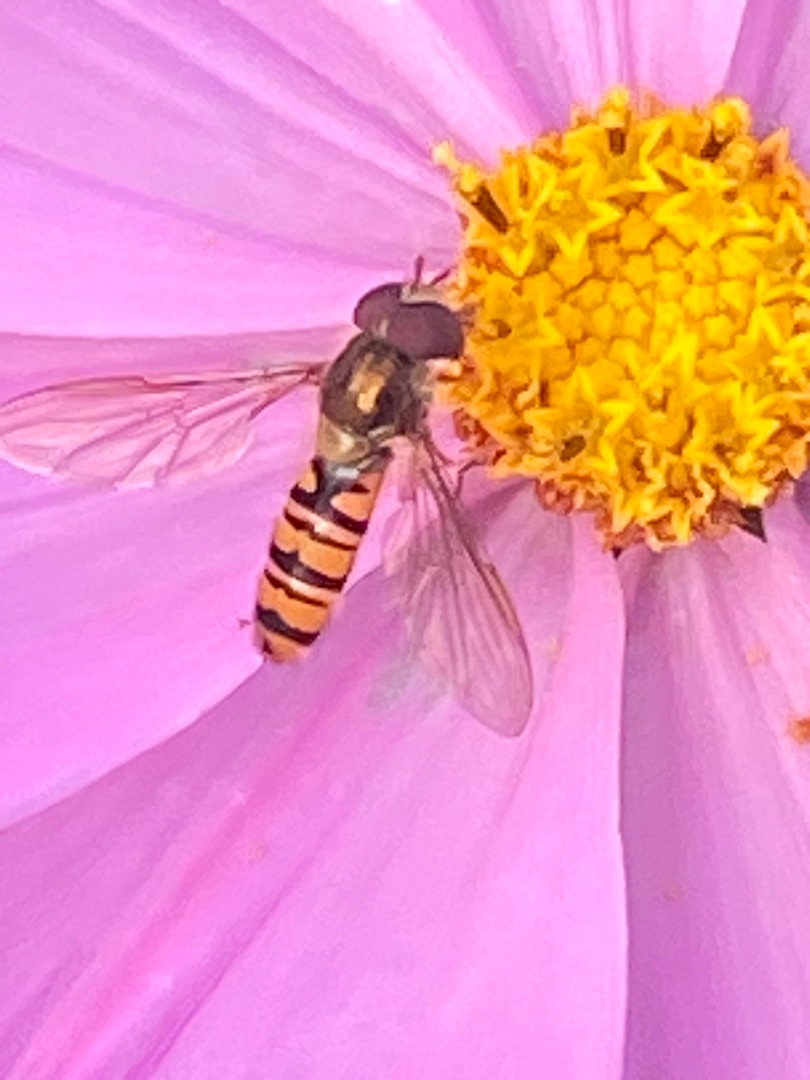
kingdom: Animalia
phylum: Arthropoda
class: Insecta
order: Diptera
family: Syrphidae
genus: Episyrphus
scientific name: Episyrphus balteatus
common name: Dobbeltbåndet svirreflue
